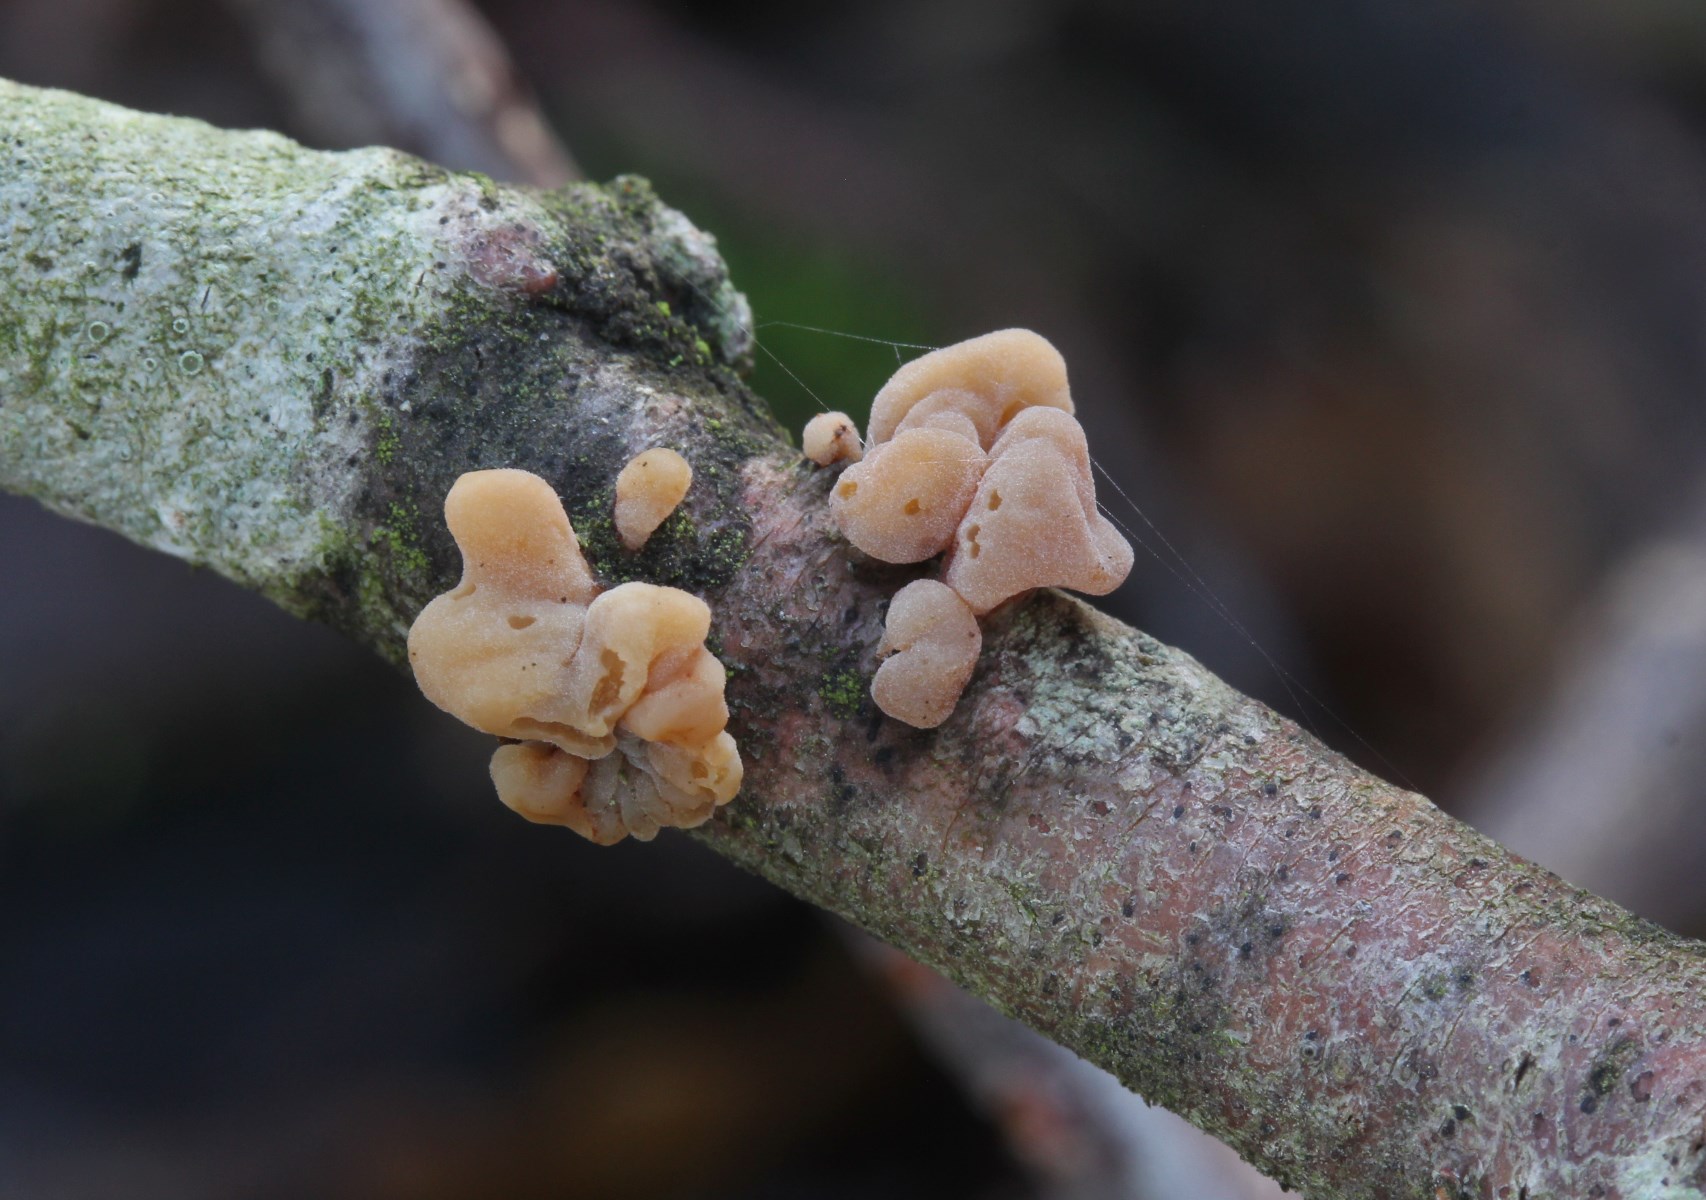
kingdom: Fungi
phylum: Basidiomycota
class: Agaricomycetes
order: Agaricales
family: Typhulaceae
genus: Typhula
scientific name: Typhula contorta
